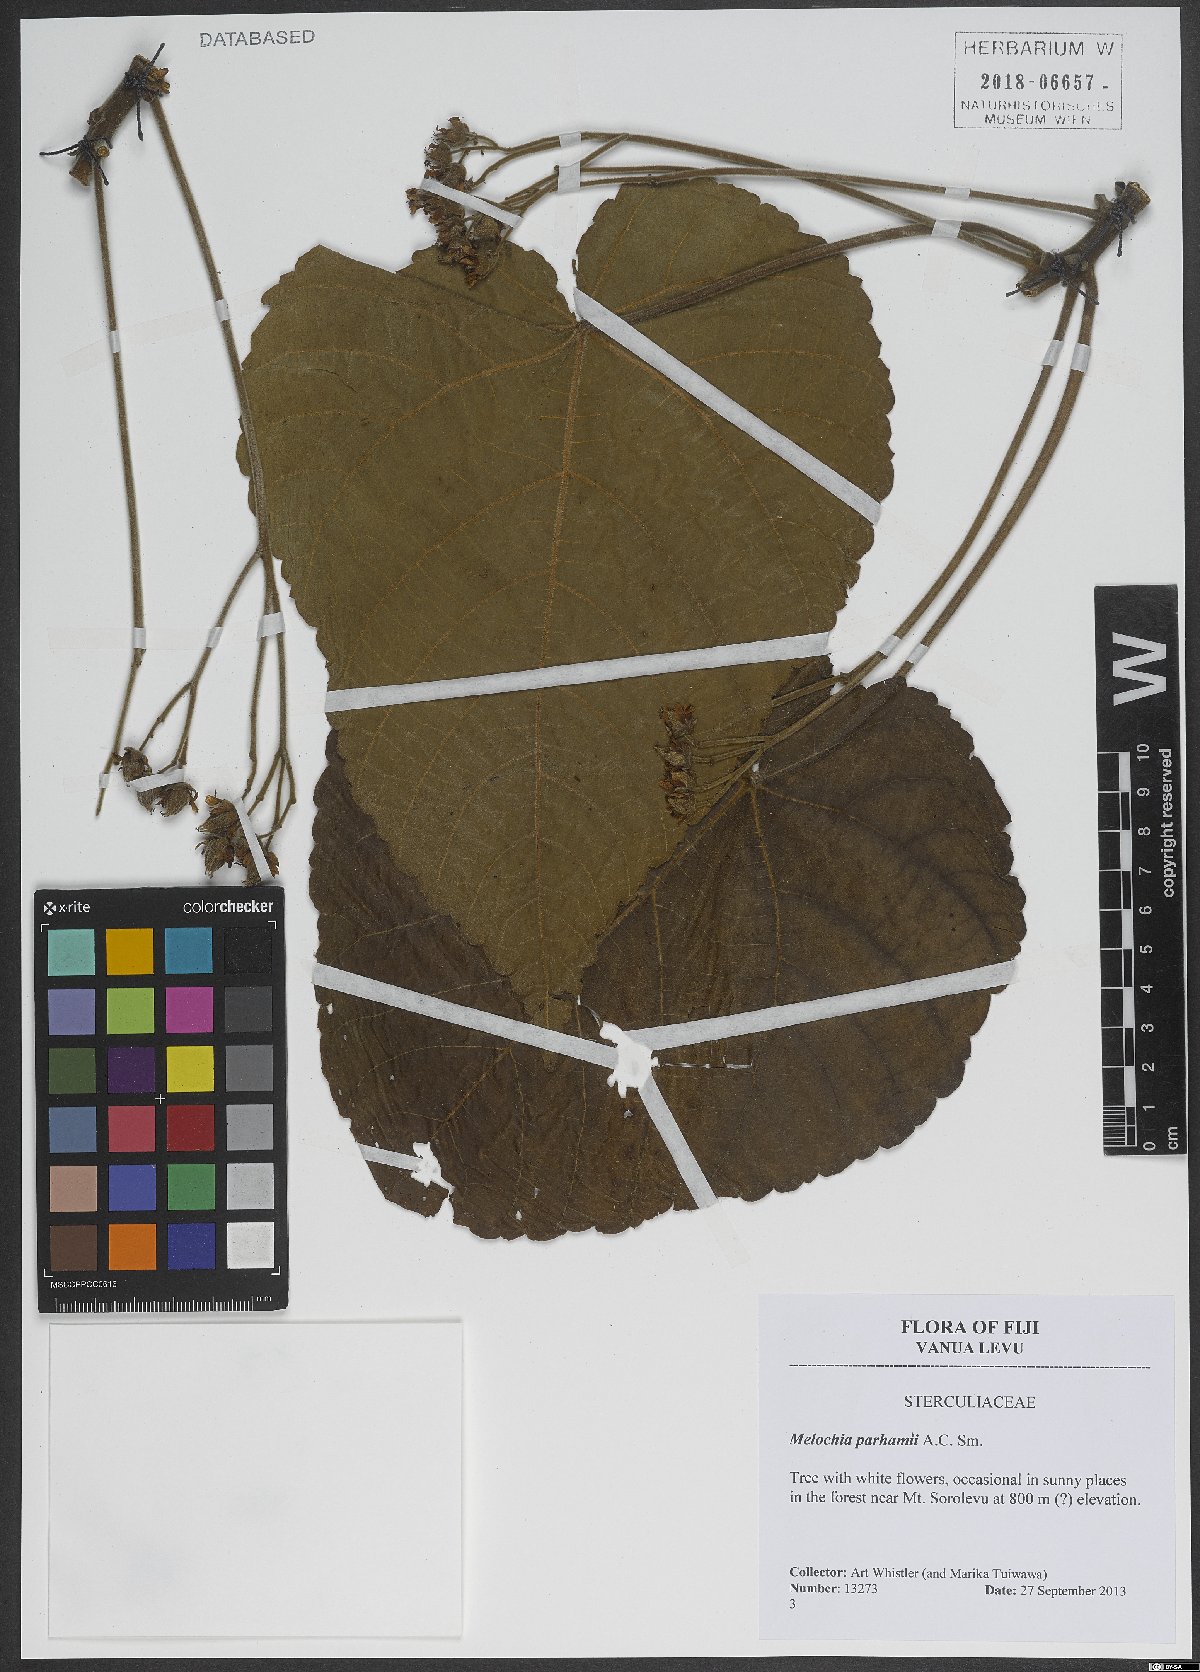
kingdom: Plantae
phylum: Tracheophyta
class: Magnoliopsida
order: Malvales
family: Malvaceae
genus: Melochia
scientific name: Melochia parhamii
